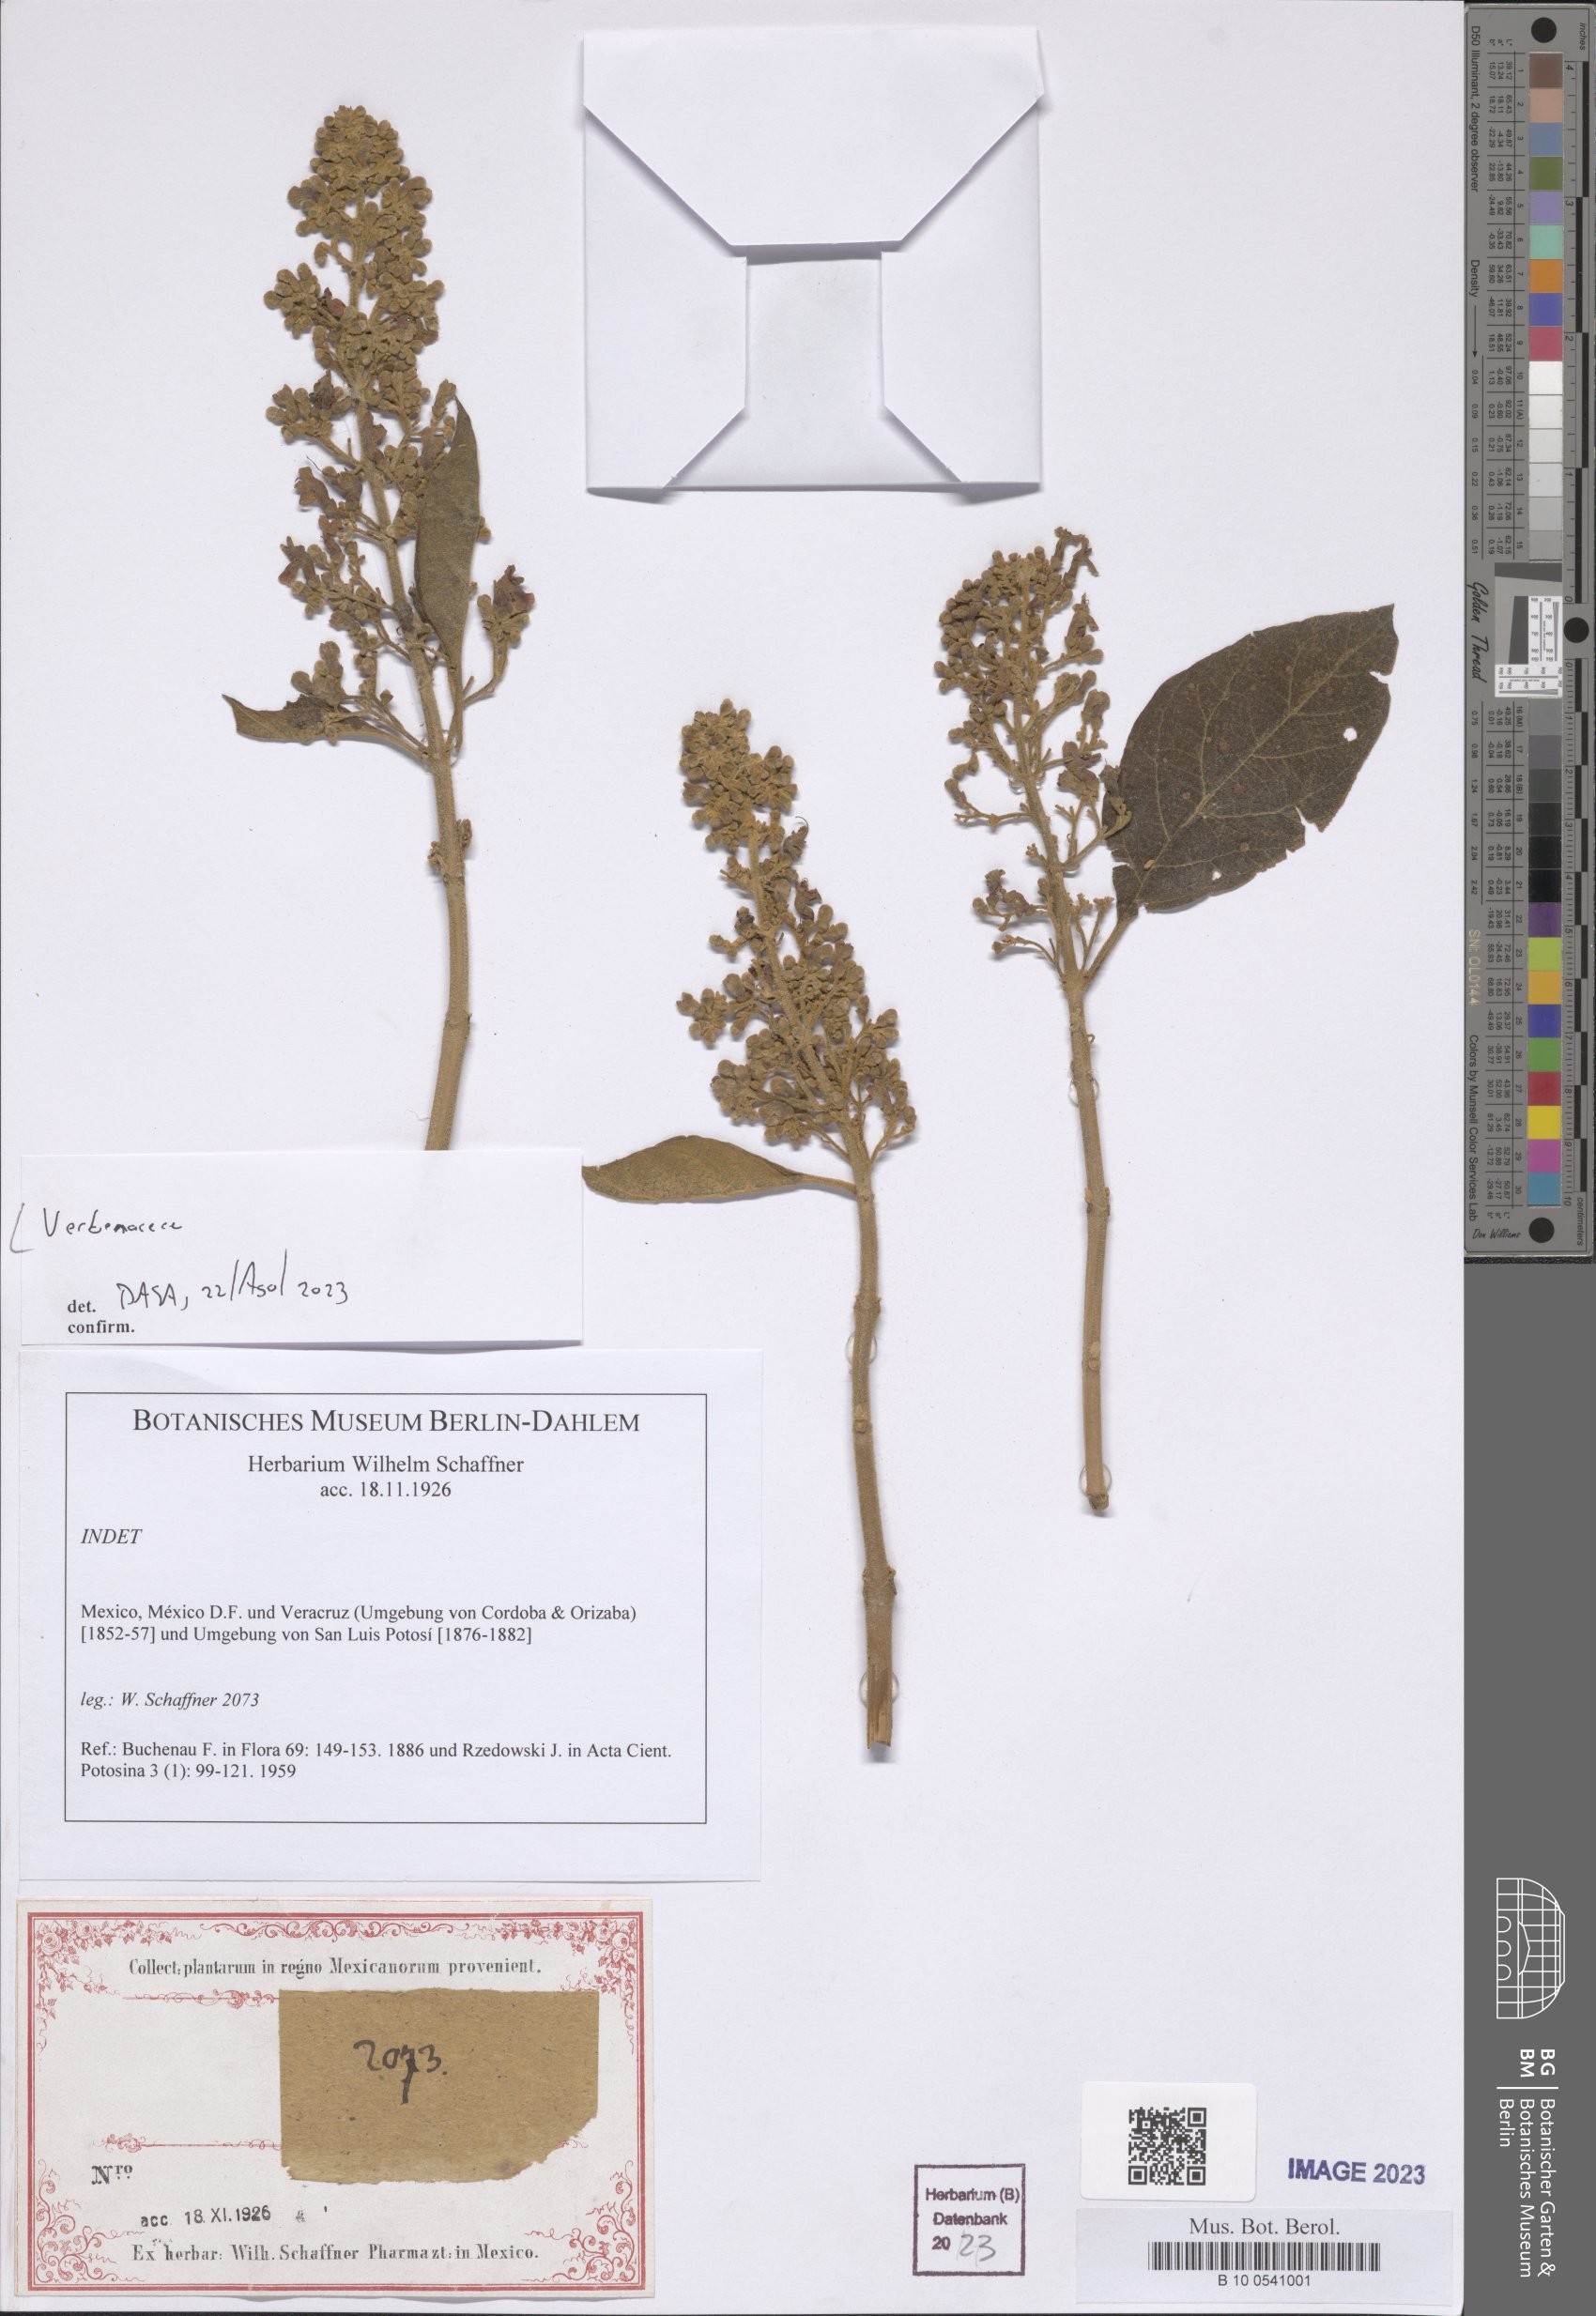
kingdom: Plantae
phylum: Tracheophyta
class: Magnoliopsida
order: Lamiales
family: Verbenaceae
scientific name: Verbenaceae
